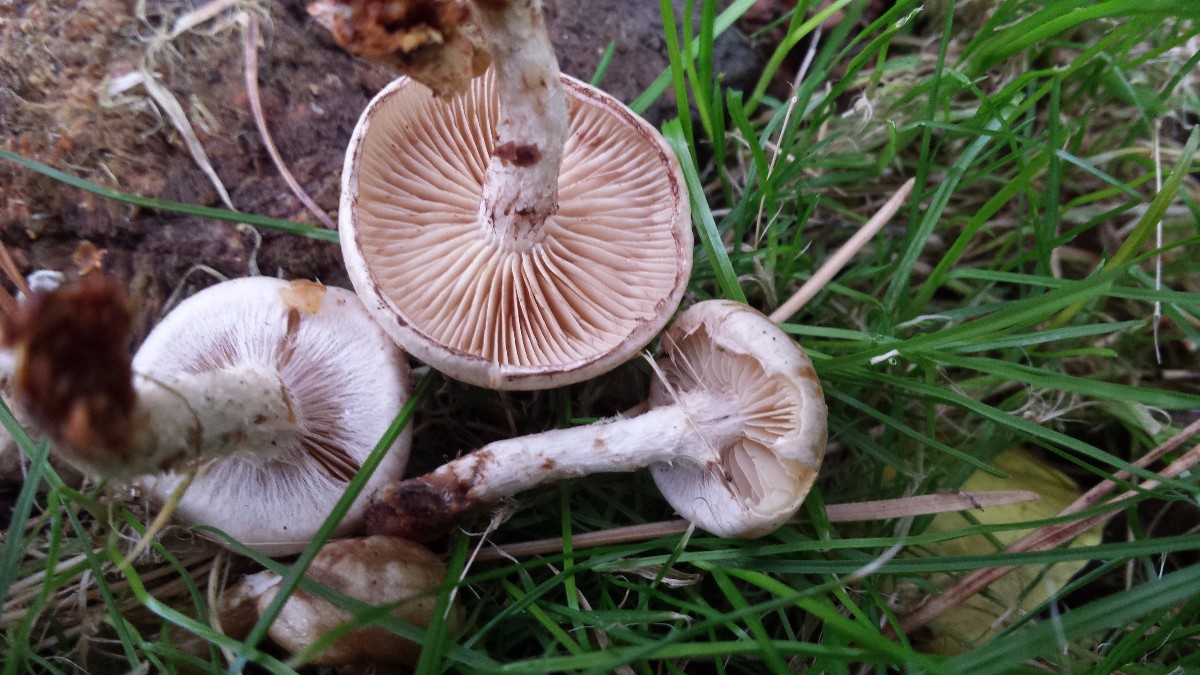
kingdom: Fungi
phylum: Basidiomycota
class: Agaricomycetes
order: Agaricales
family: Strophariaceae
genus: Pholiota
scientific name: Pholiota gummosa
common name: grøngul skælhat
